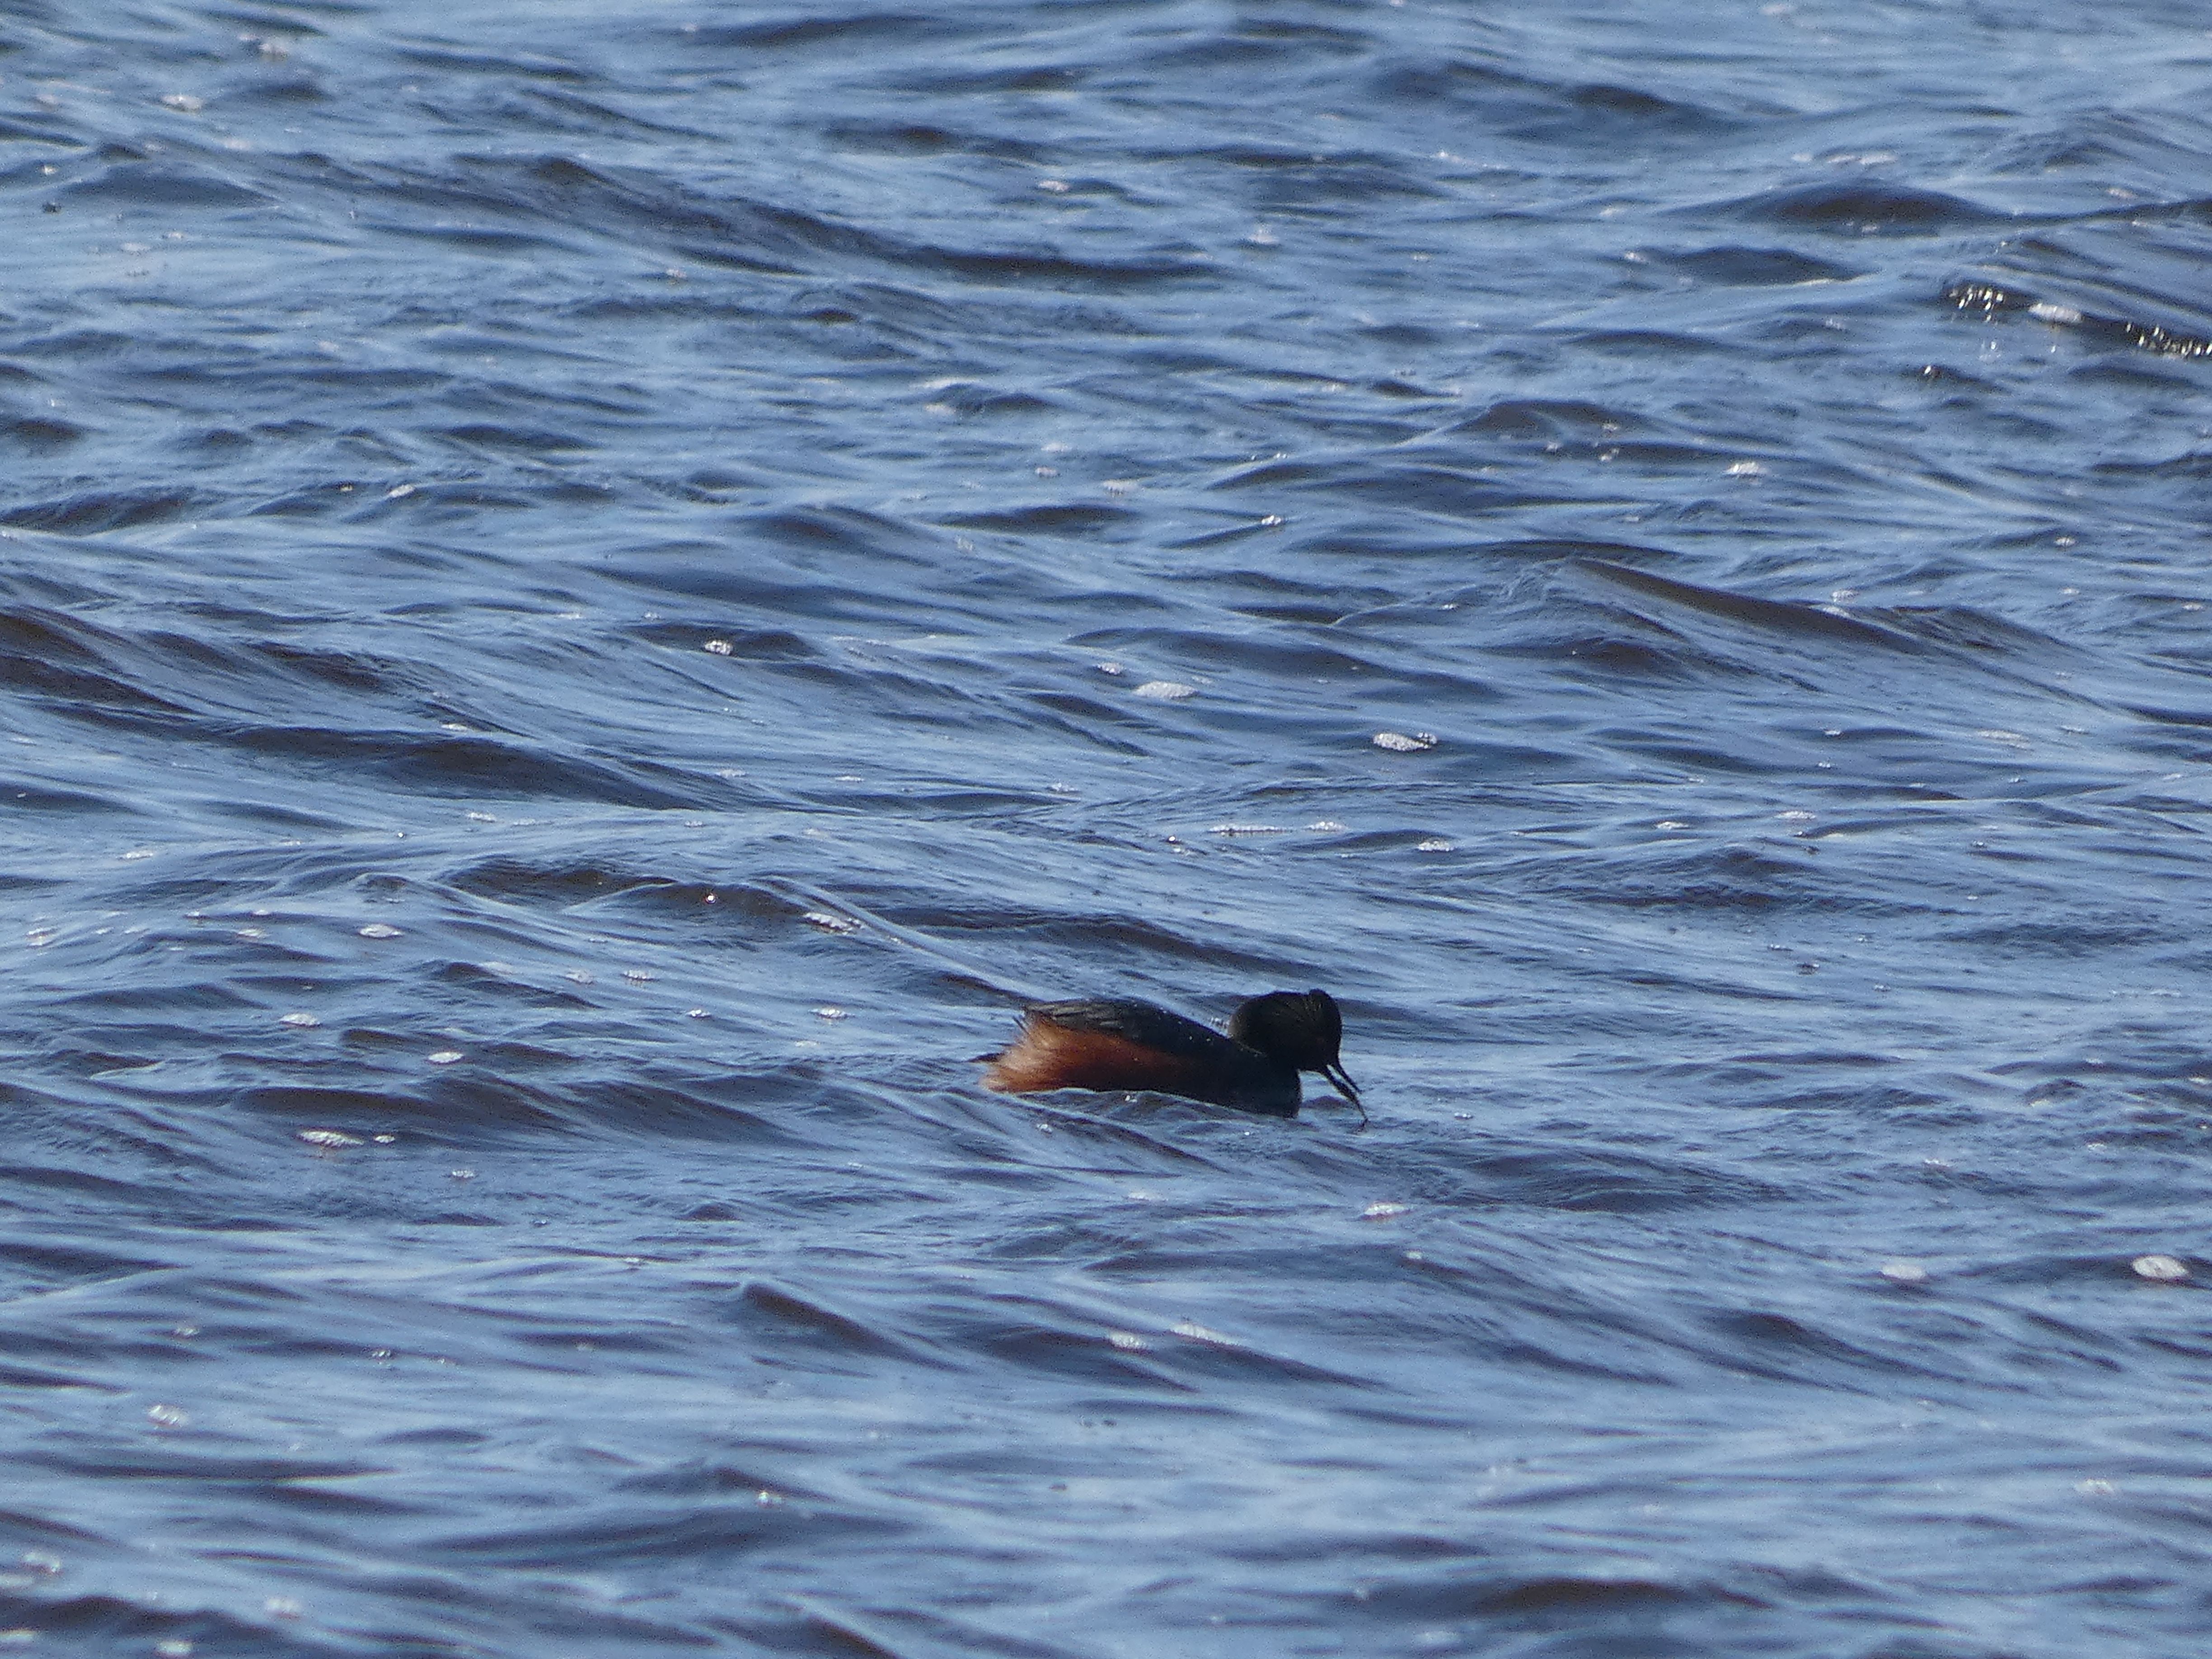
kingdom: Animalia
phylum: Chordata
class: Aves
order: Podicipediformes
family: Podicipedidae
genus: Podiceps
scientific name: Podiceps nigricollis
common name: Sorthalset lappedykker
